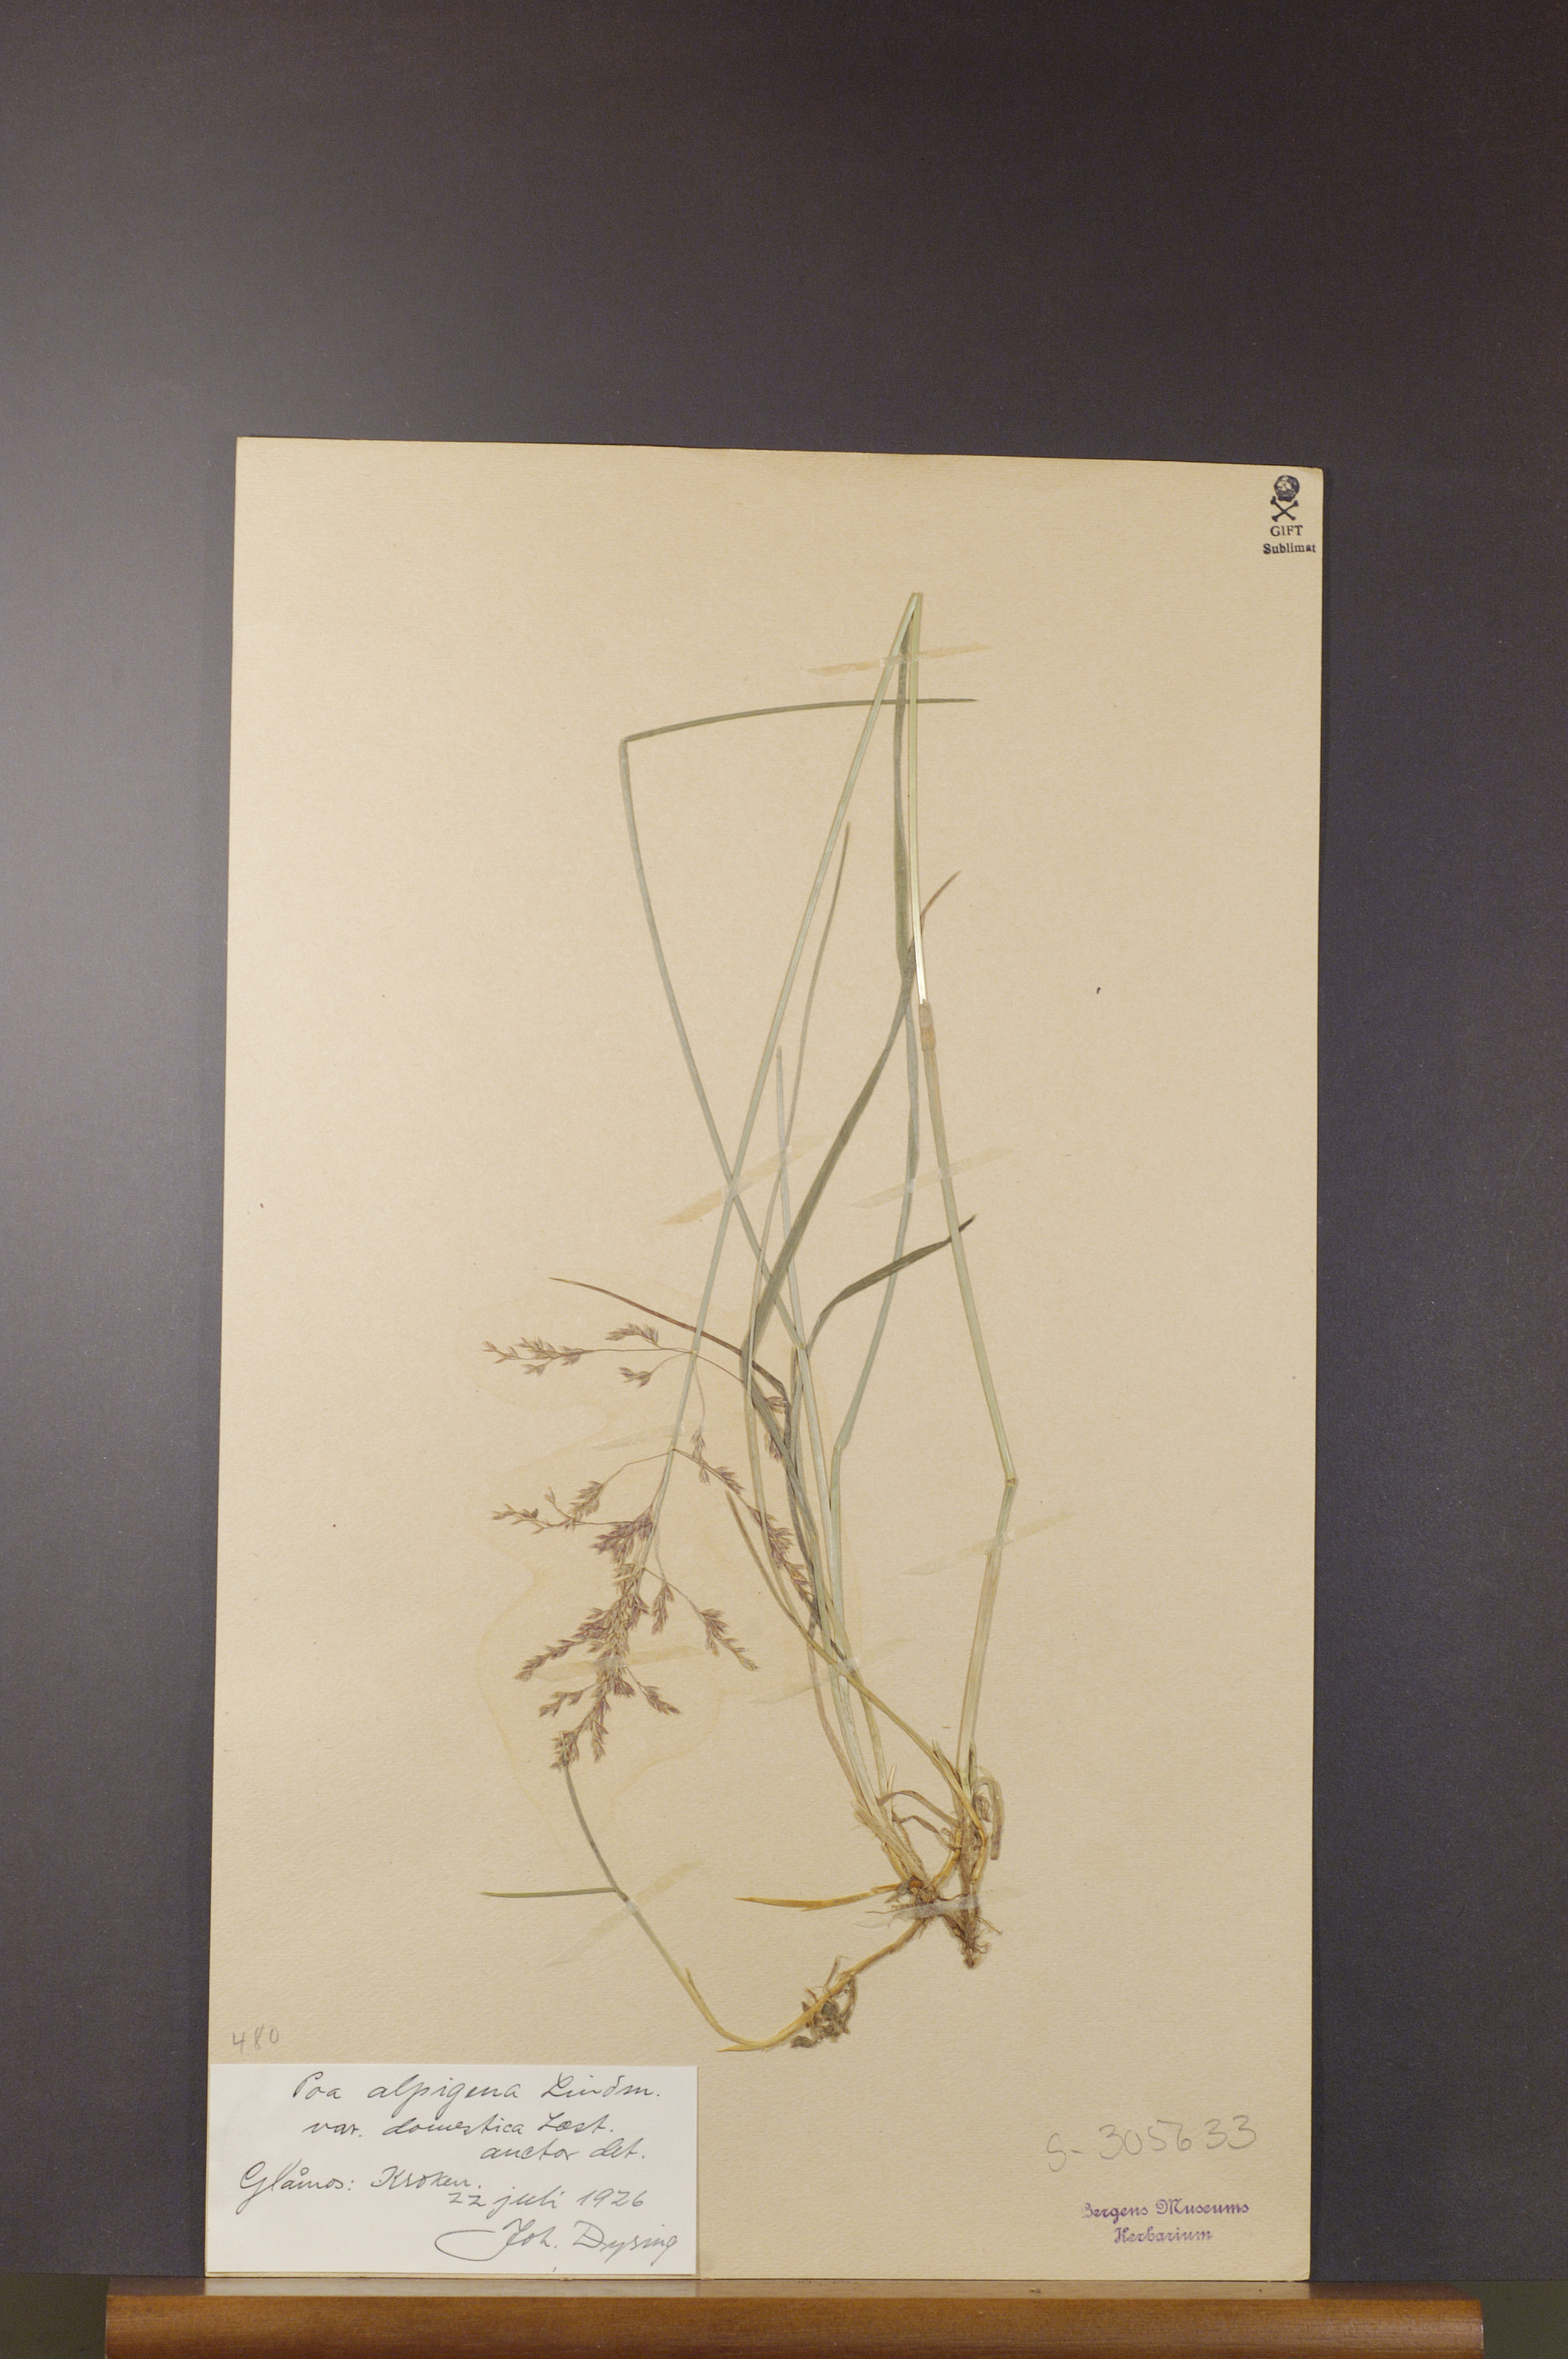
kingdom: Plantae
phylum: Tracheophyta
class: Liliopsida
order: Poales
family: Poaceae
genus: Poa
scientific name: Poa pratensis
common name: Kentucky bluegrass
